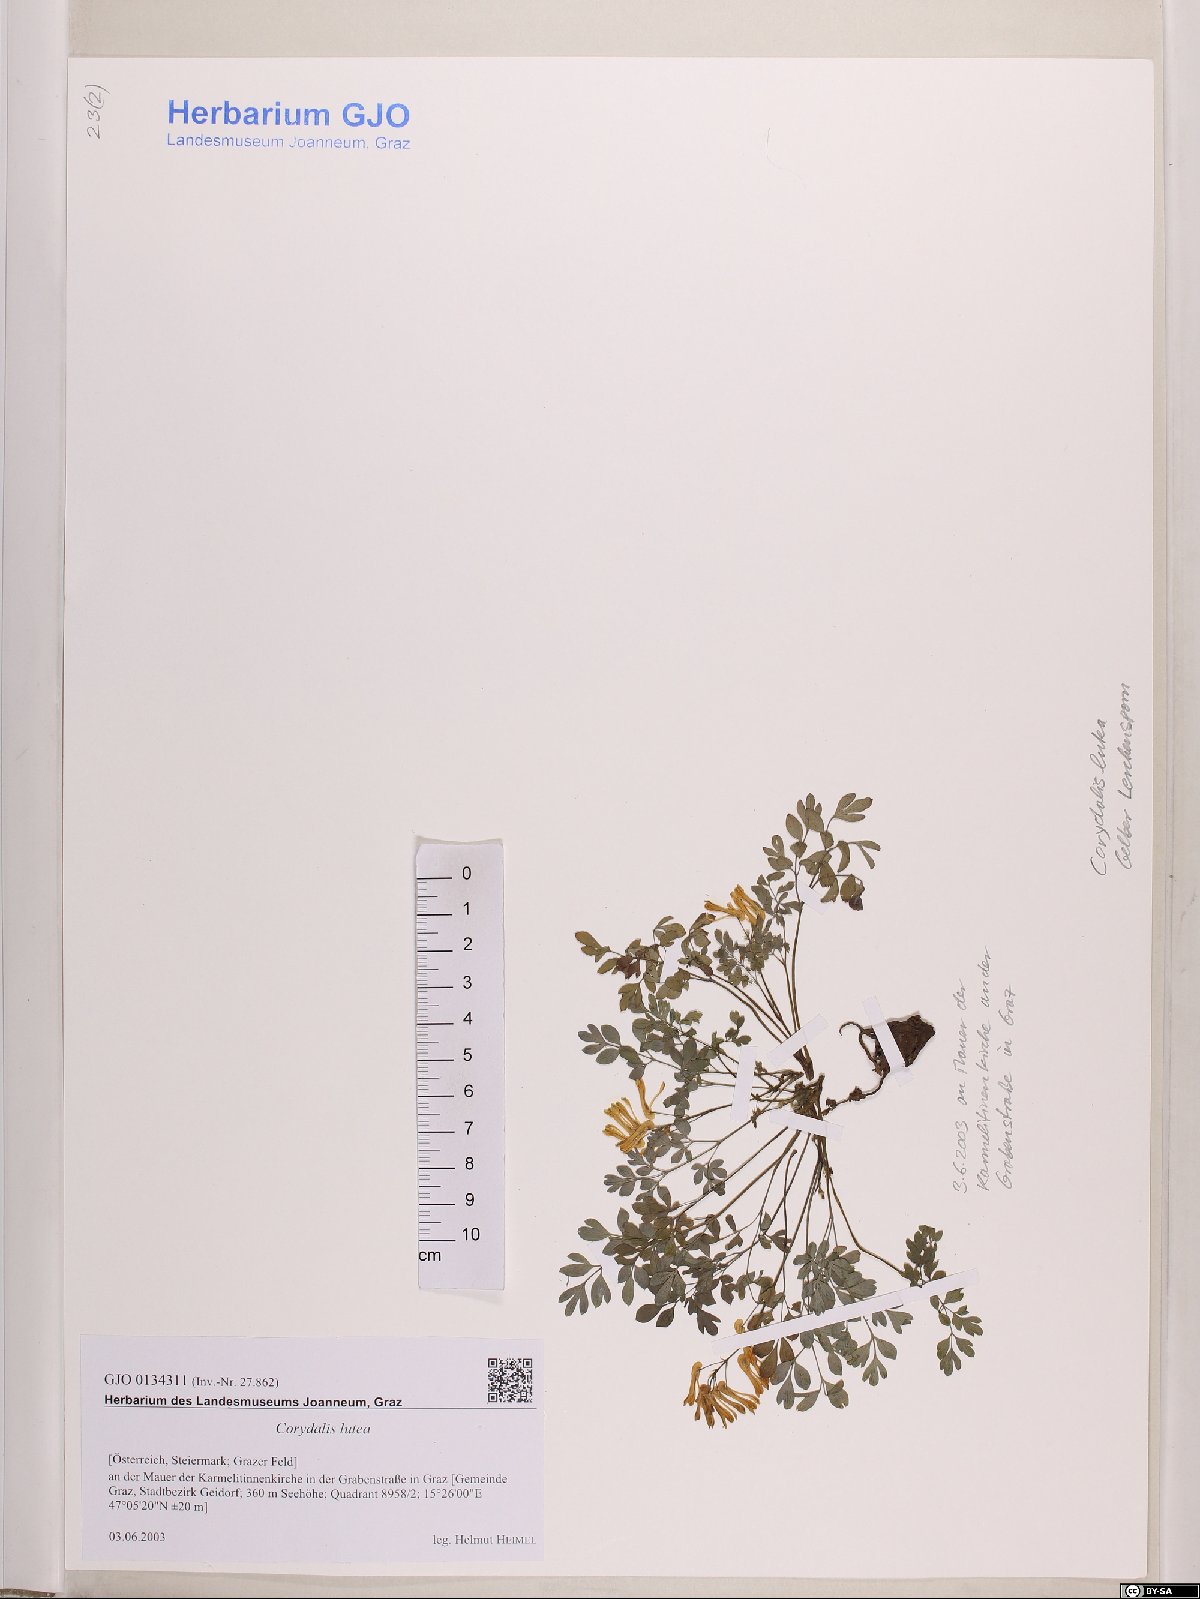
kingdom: Plantae
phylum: Tracheophyta
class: Magnoliopsida
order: Ranunculales
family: Papaveraceae
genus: Pseudofumaria
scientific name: Pseudofumaria lutea
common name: Yellow corydalis
